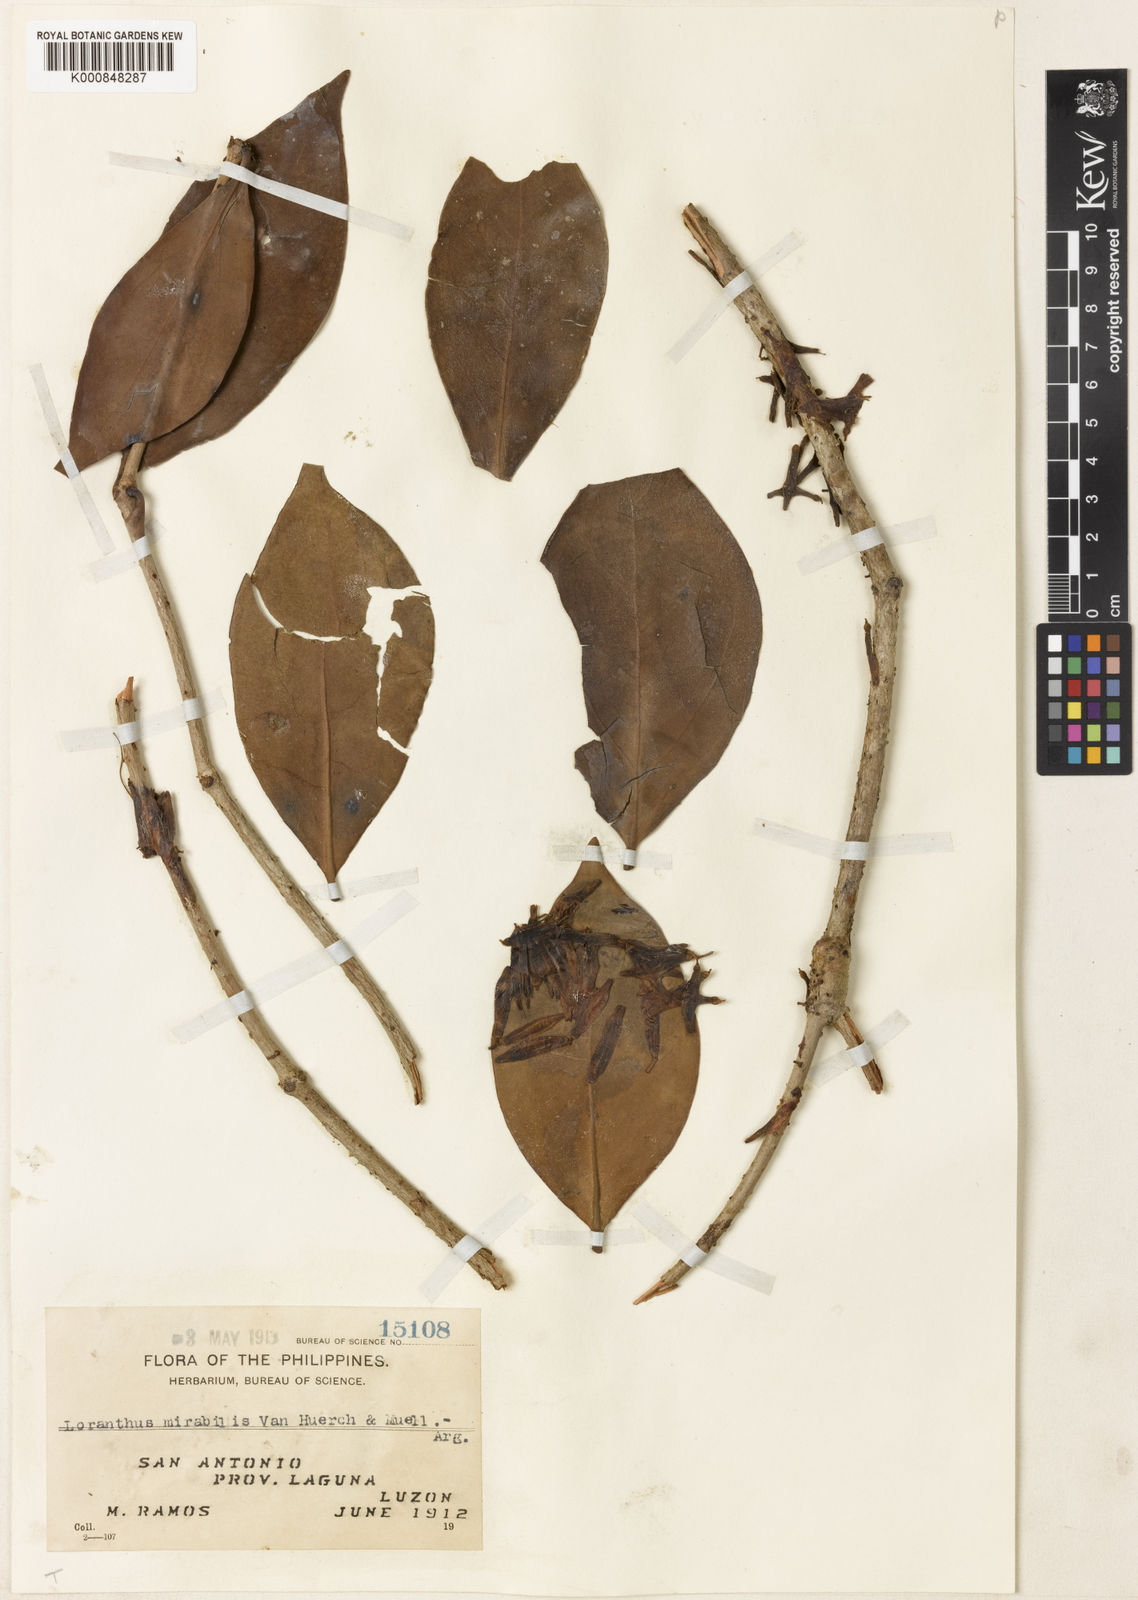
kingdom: Plantae
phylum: Tracheophyta
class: Magnoliopsida
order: Santalales
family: Loranthaceae
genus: Amyema
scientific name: Amyema fasciculata
